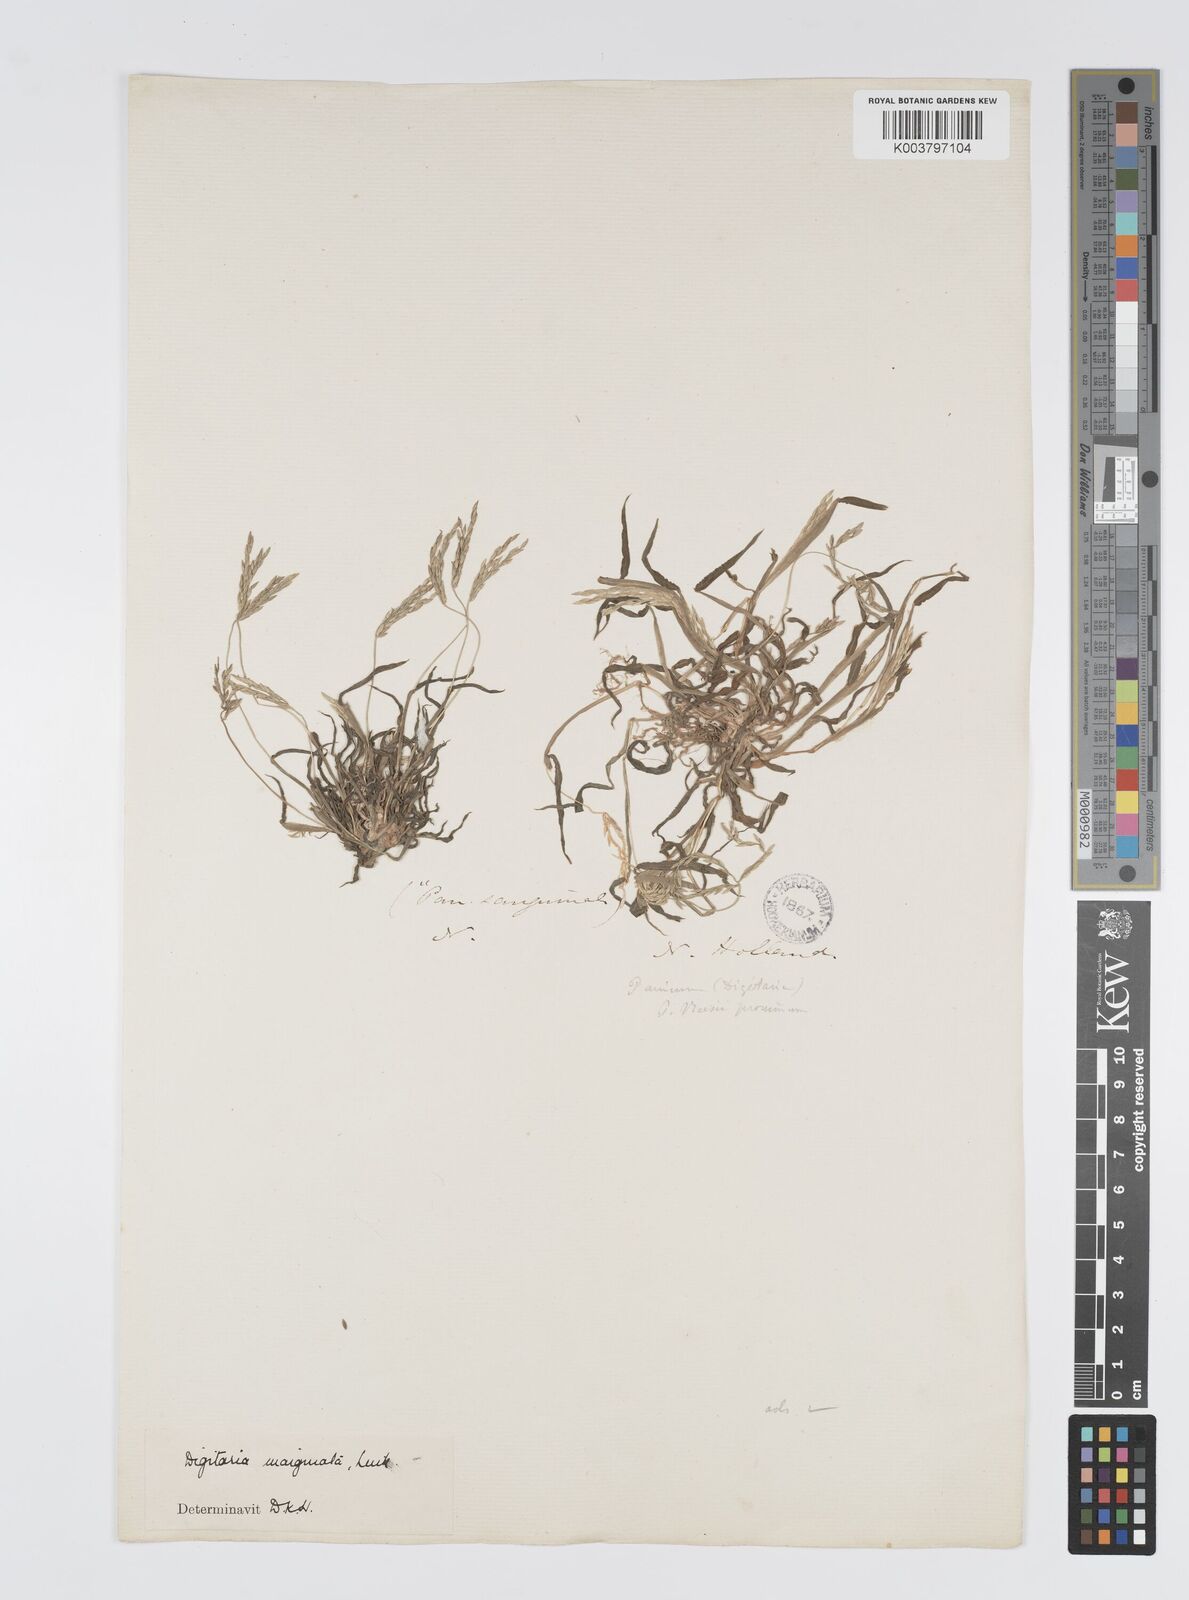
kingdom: Plantae
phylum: Tracheophyta
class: Liliopsida
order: Poales
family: Poaceae
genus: Digitaria
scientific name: Digitaria ciliaris
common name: Tropical finger-grass
